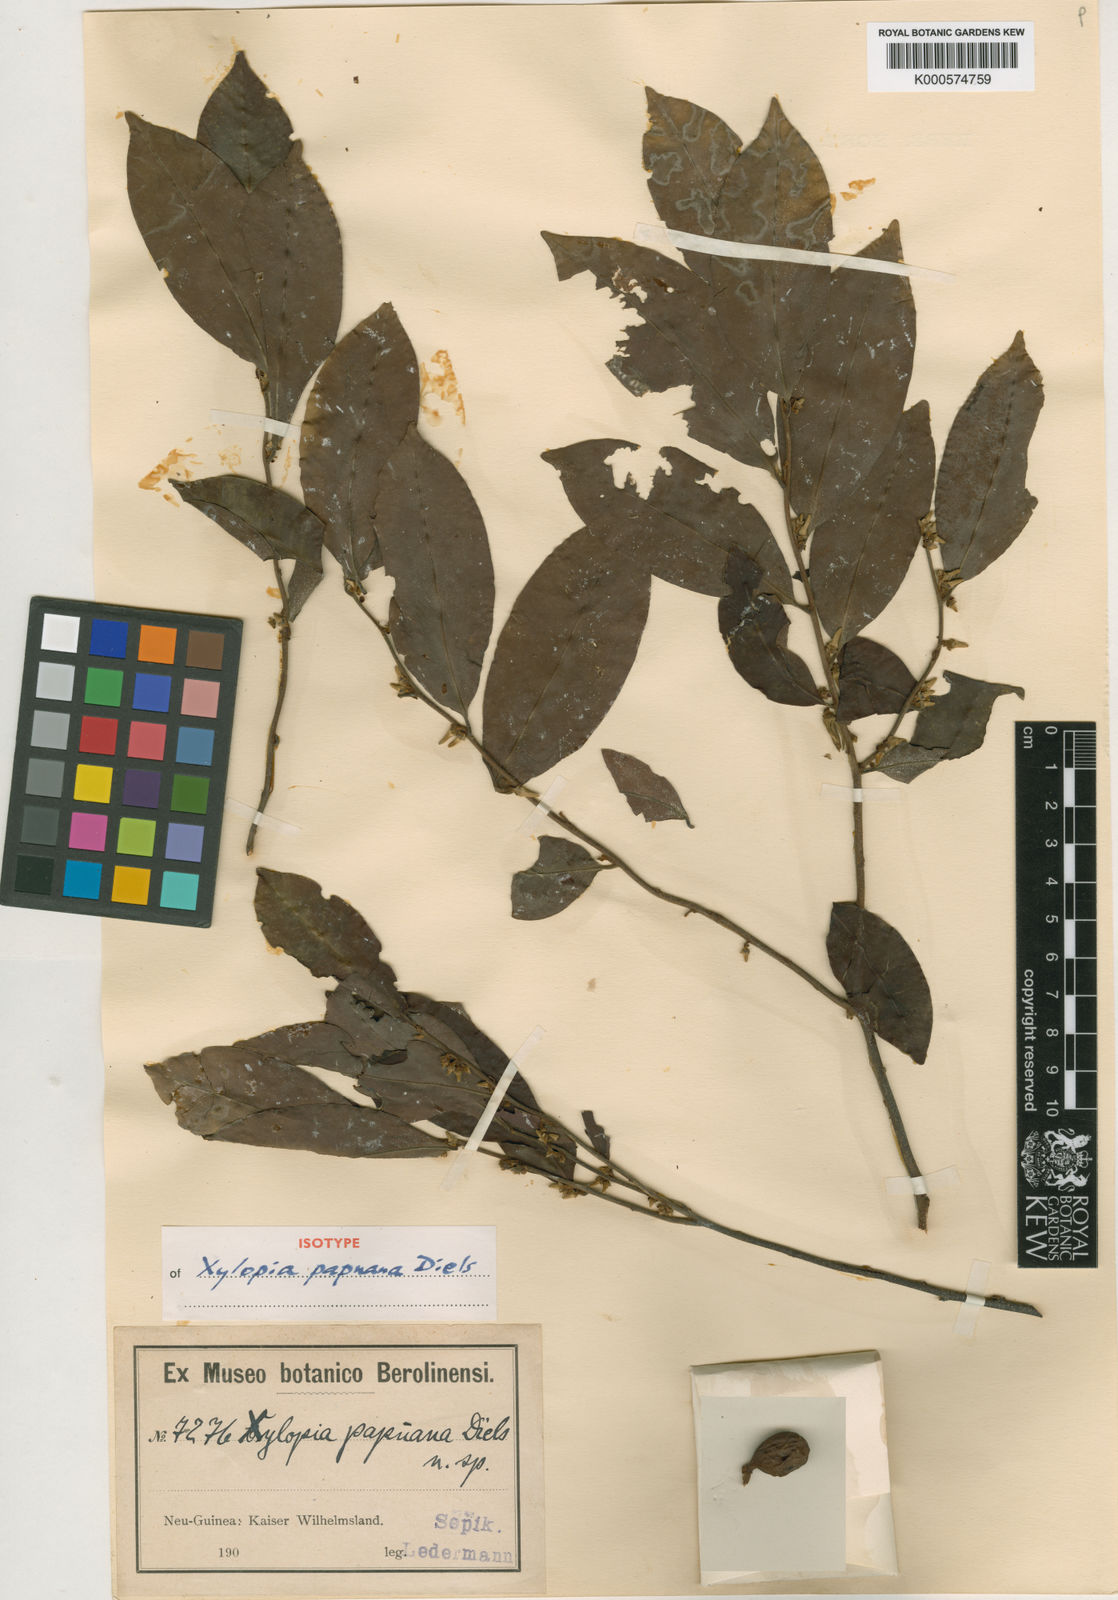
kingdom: Plantae
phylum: Tracheophyta
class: Magnoliopsida
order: Magnoliales
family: Annonaceae
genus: Xylopia
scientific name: Xylopia papuana
